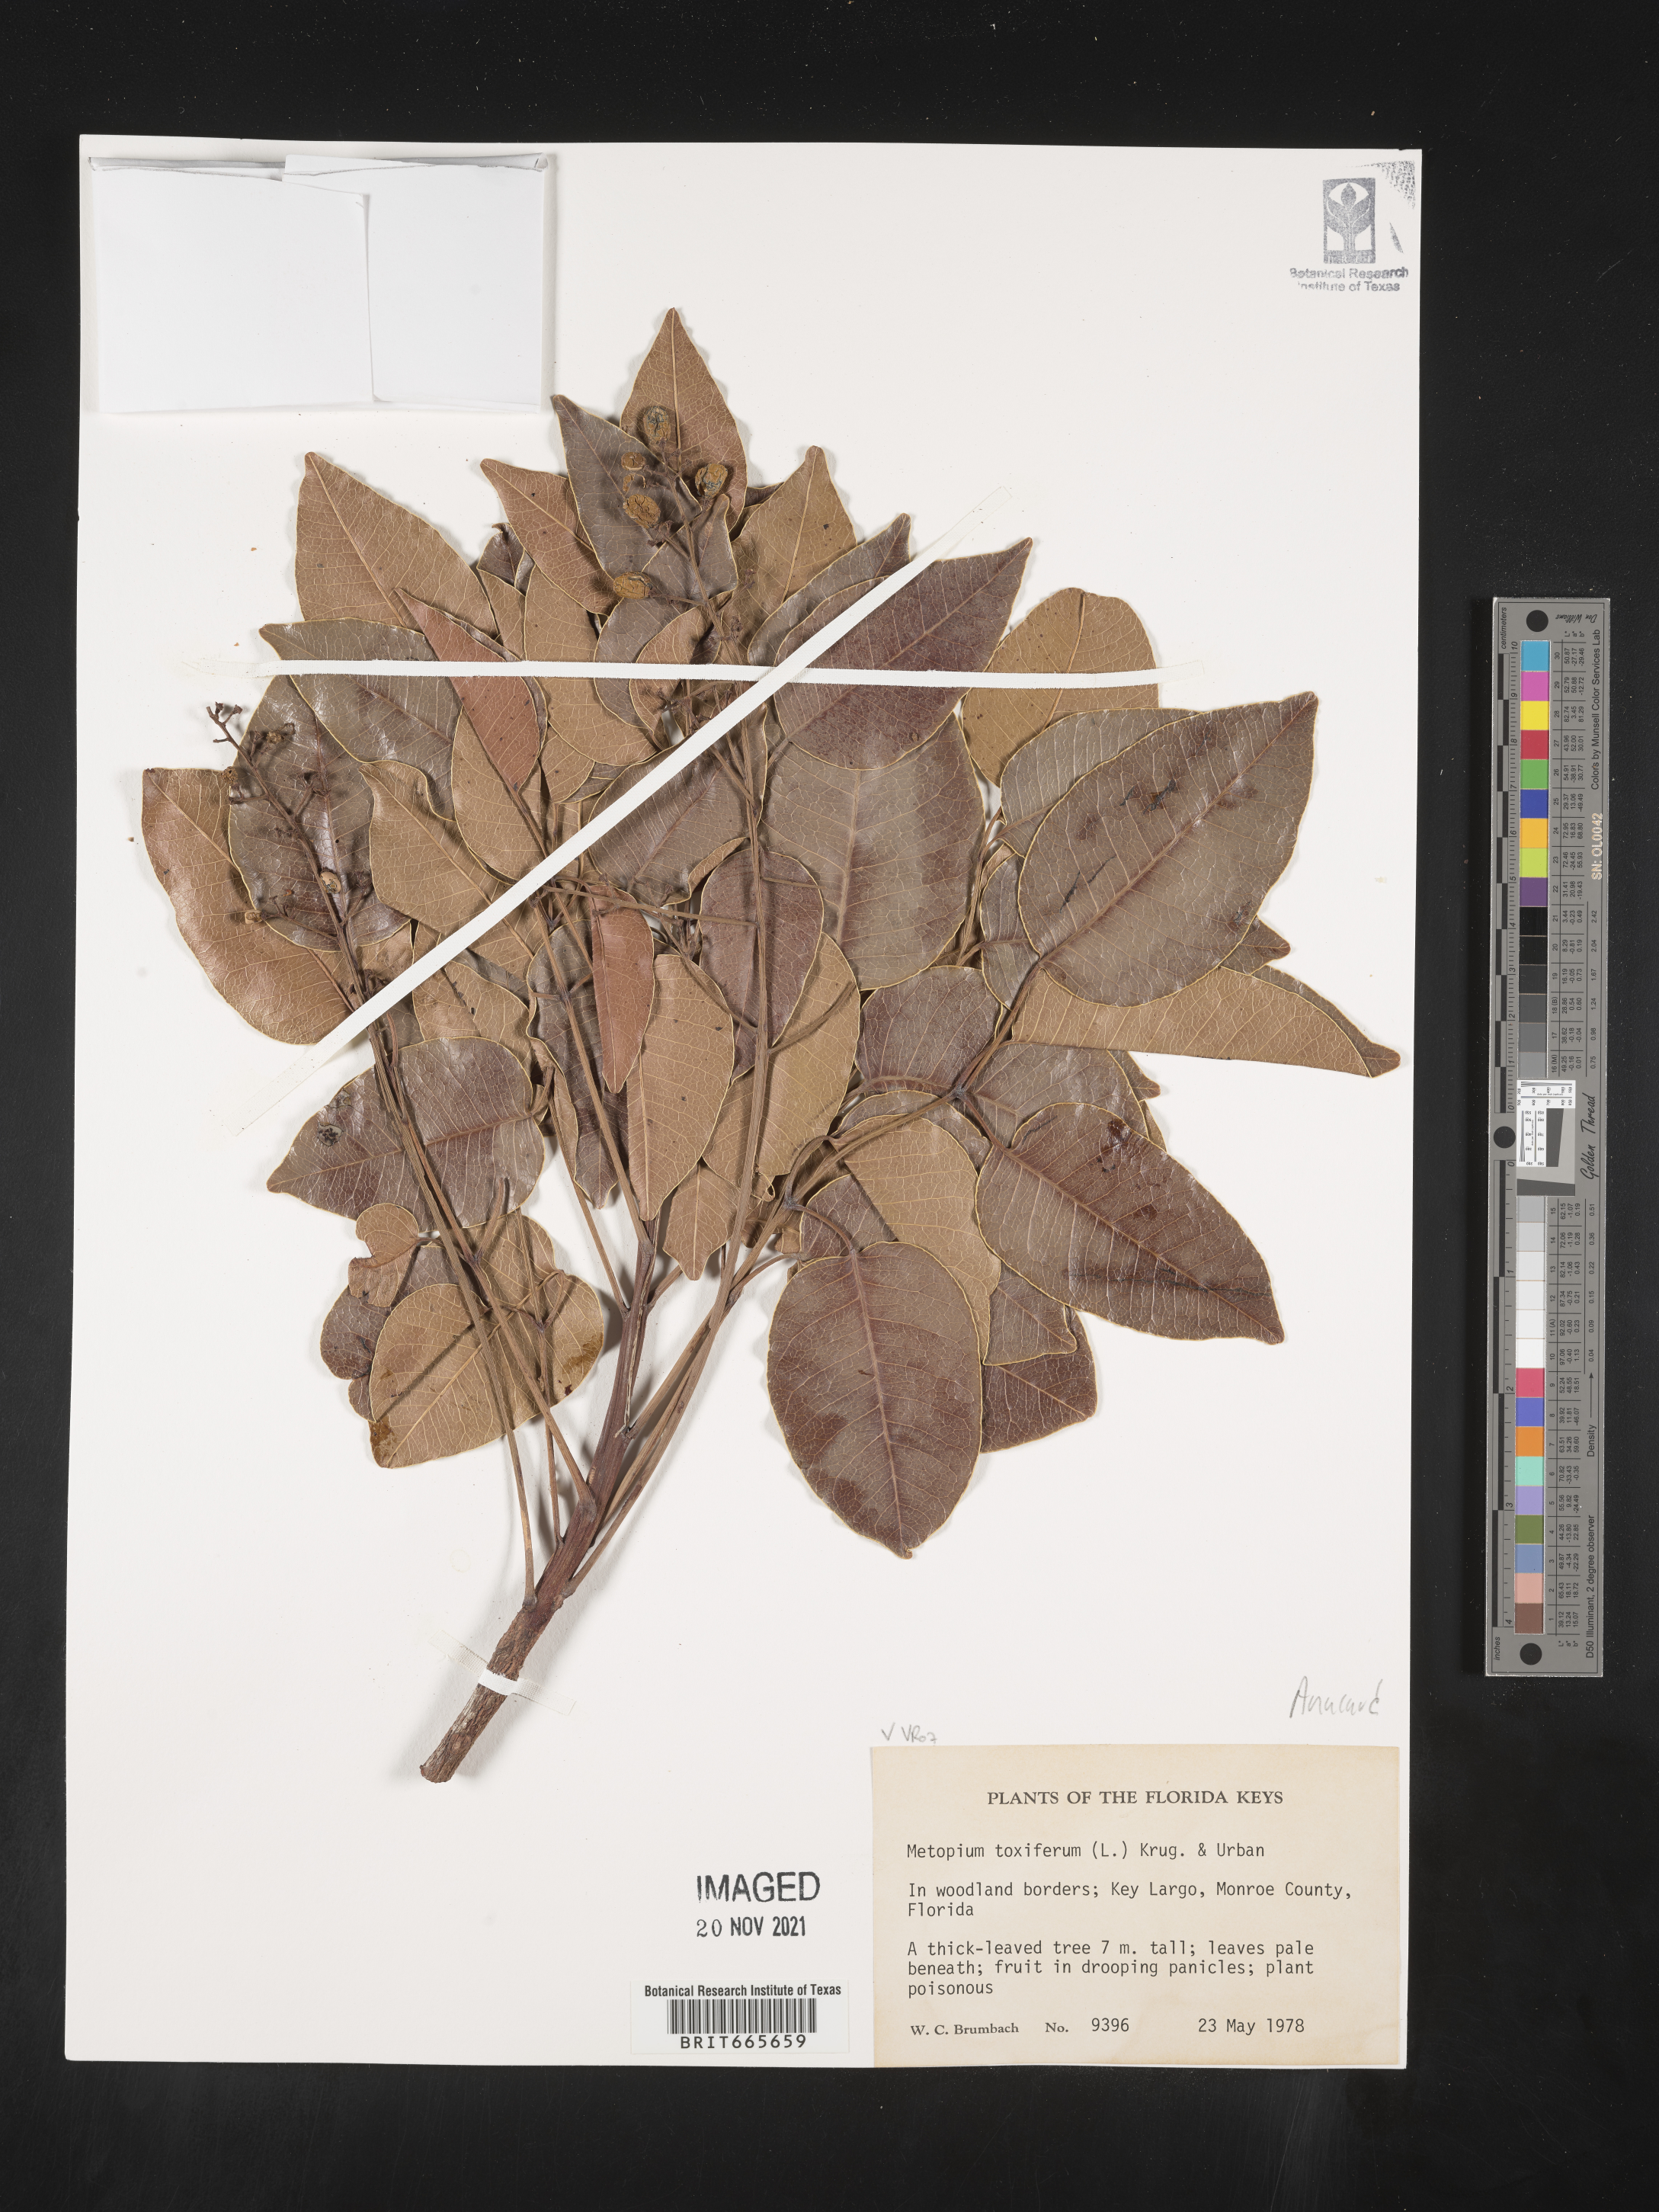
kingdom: Plantae
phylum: Tracheophyta
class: Magnoliopsida
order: Sapindales
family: Anacardiaceae
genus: Metopium
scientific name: Metopium
